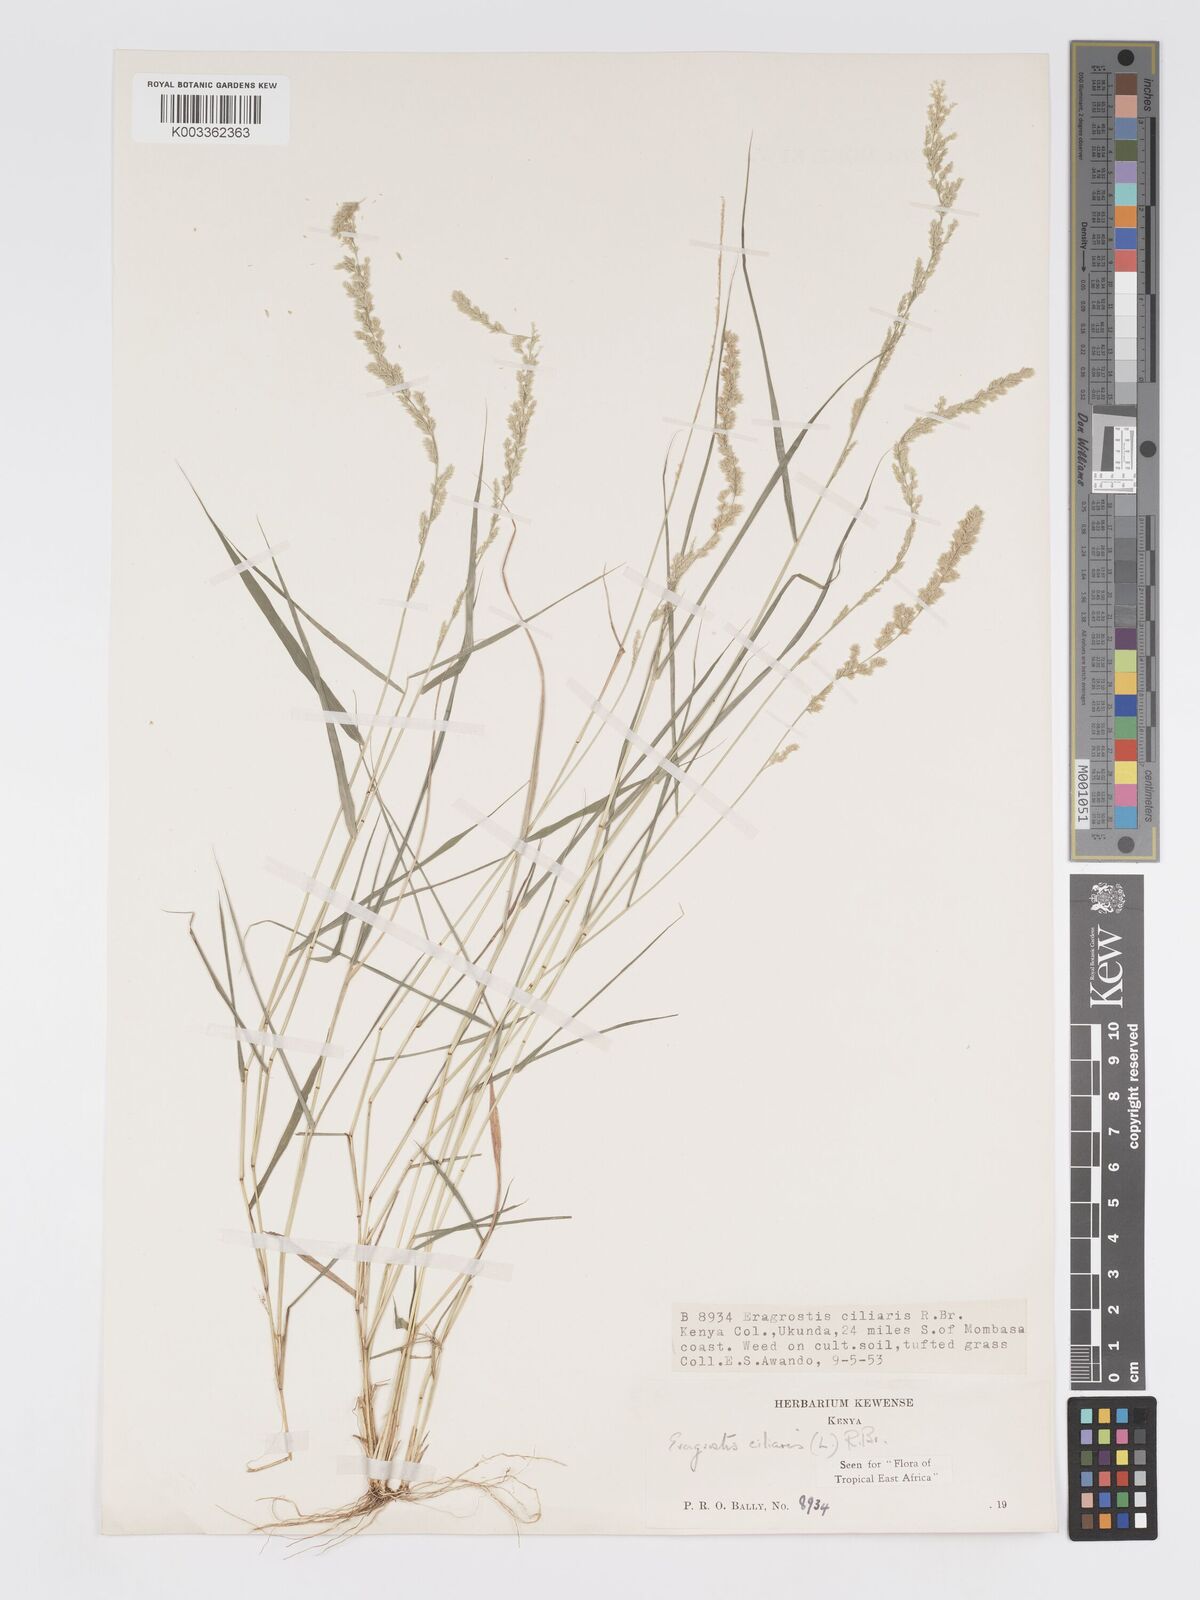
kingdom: Plantae
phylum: Tracheophyta
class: Liliopsida
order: Poales
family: Poaceae
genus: Eragrostis
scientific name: Eragrostis ciliaris
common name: Gophertail lovegrass
